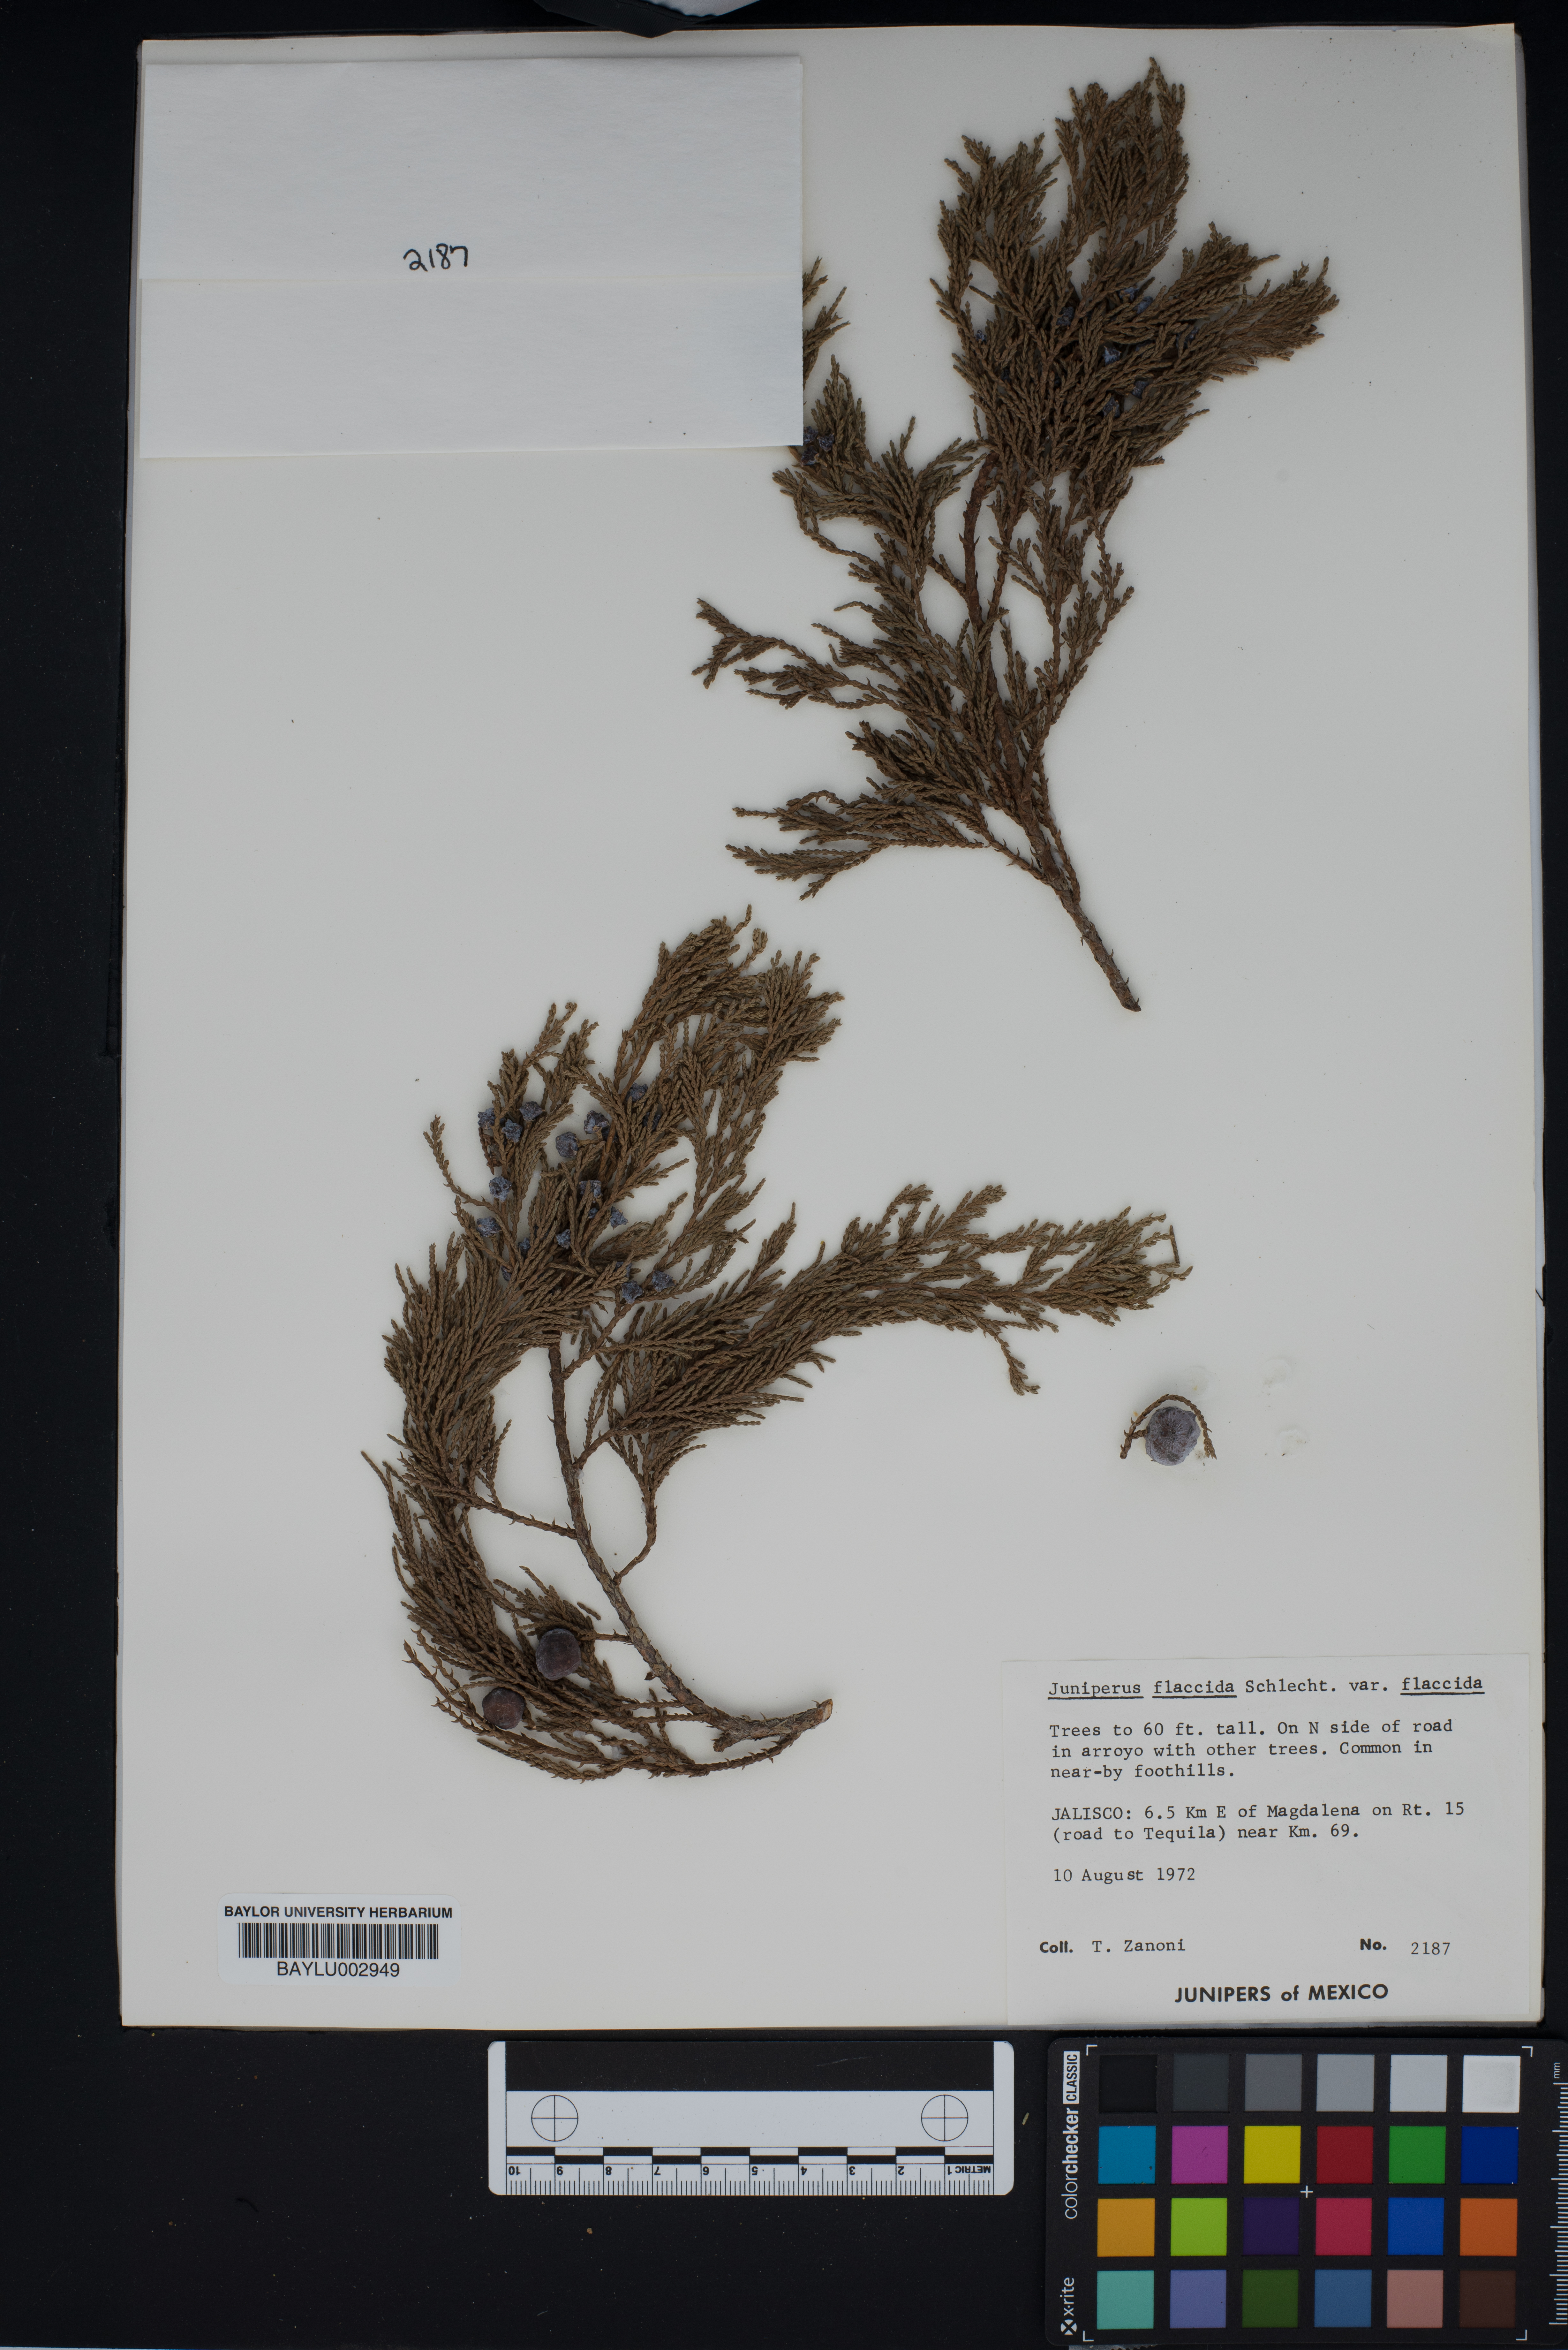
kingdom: Plantae
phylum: Tracheophyta
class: Pinopsida
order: Pinales
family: Cupressaceae
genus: Juniperus
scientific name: Juniperus flaccida
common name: Drooping juniper
